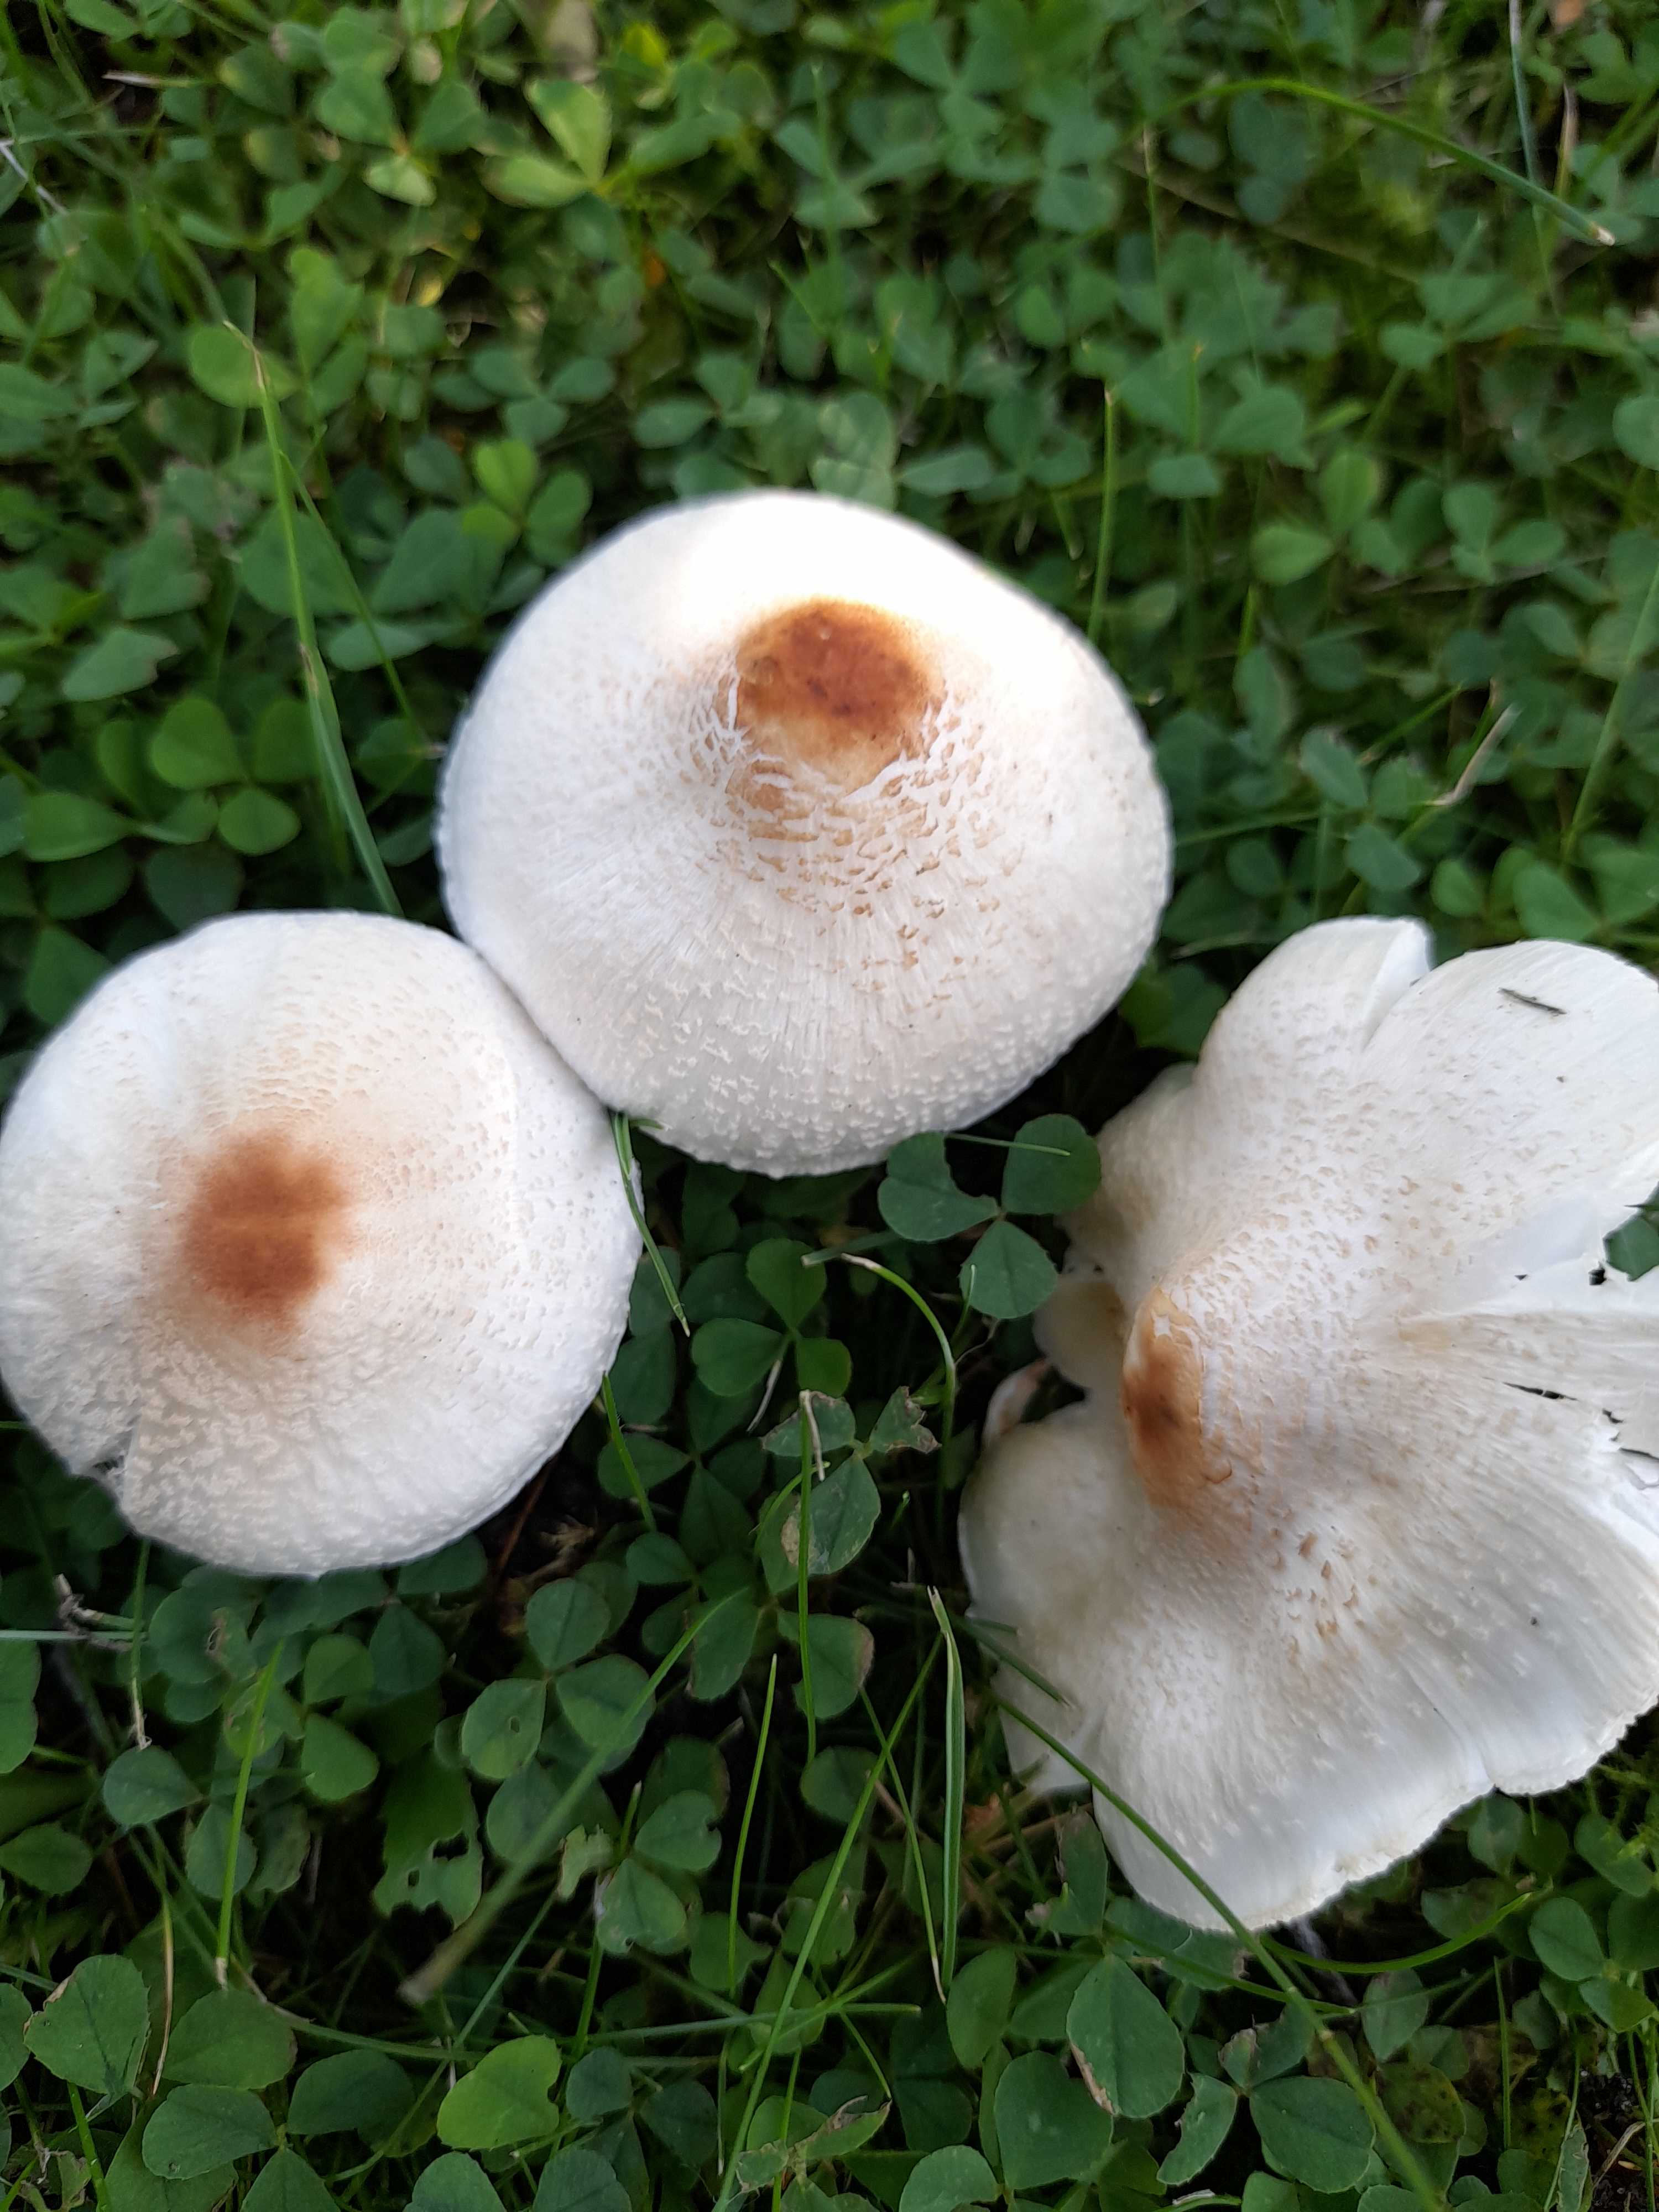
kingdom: Fungi
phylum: Basidiomycota
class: Agaricomycetes
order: Agaricales
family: Agaricaceae
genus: Lepiota
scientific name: Lepiota cristata
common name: stinkende parasolhat
